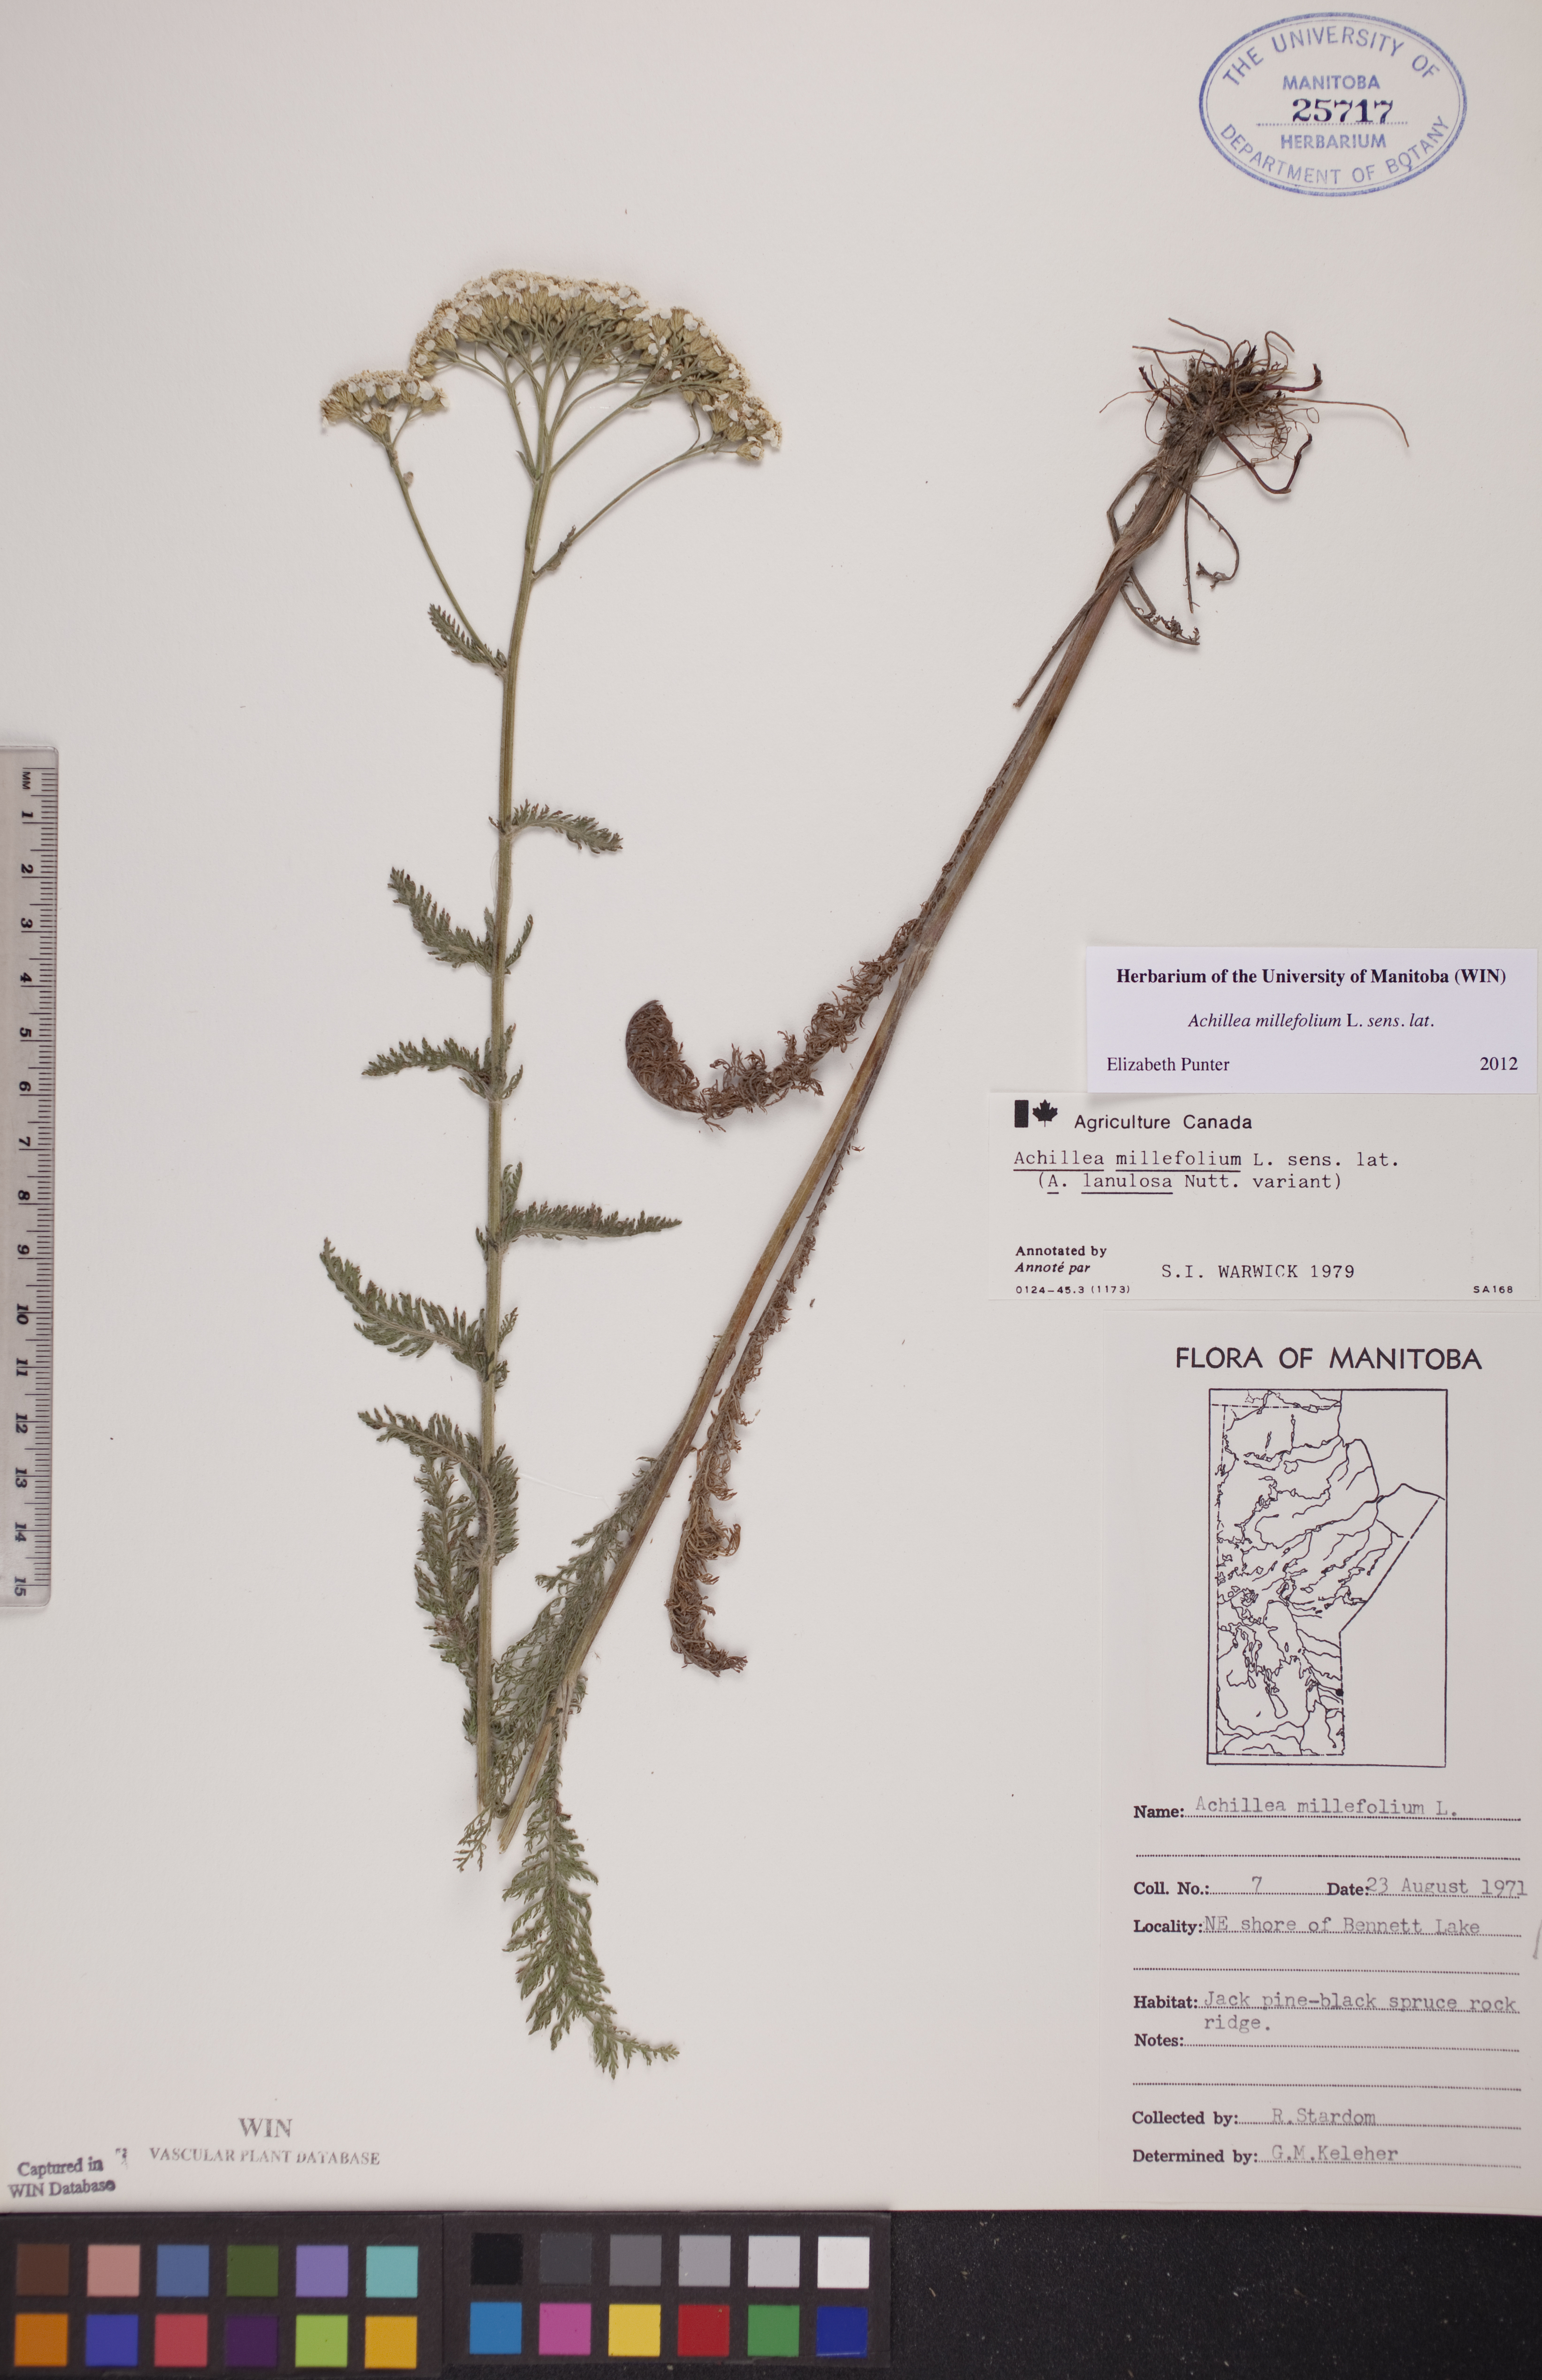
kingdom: Plantae
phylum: Tracheophyta
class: Magnoliopsida
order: Asterales
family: Asteraceae
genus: Achillea
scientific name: Achillea millefolium
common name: Yarrow
